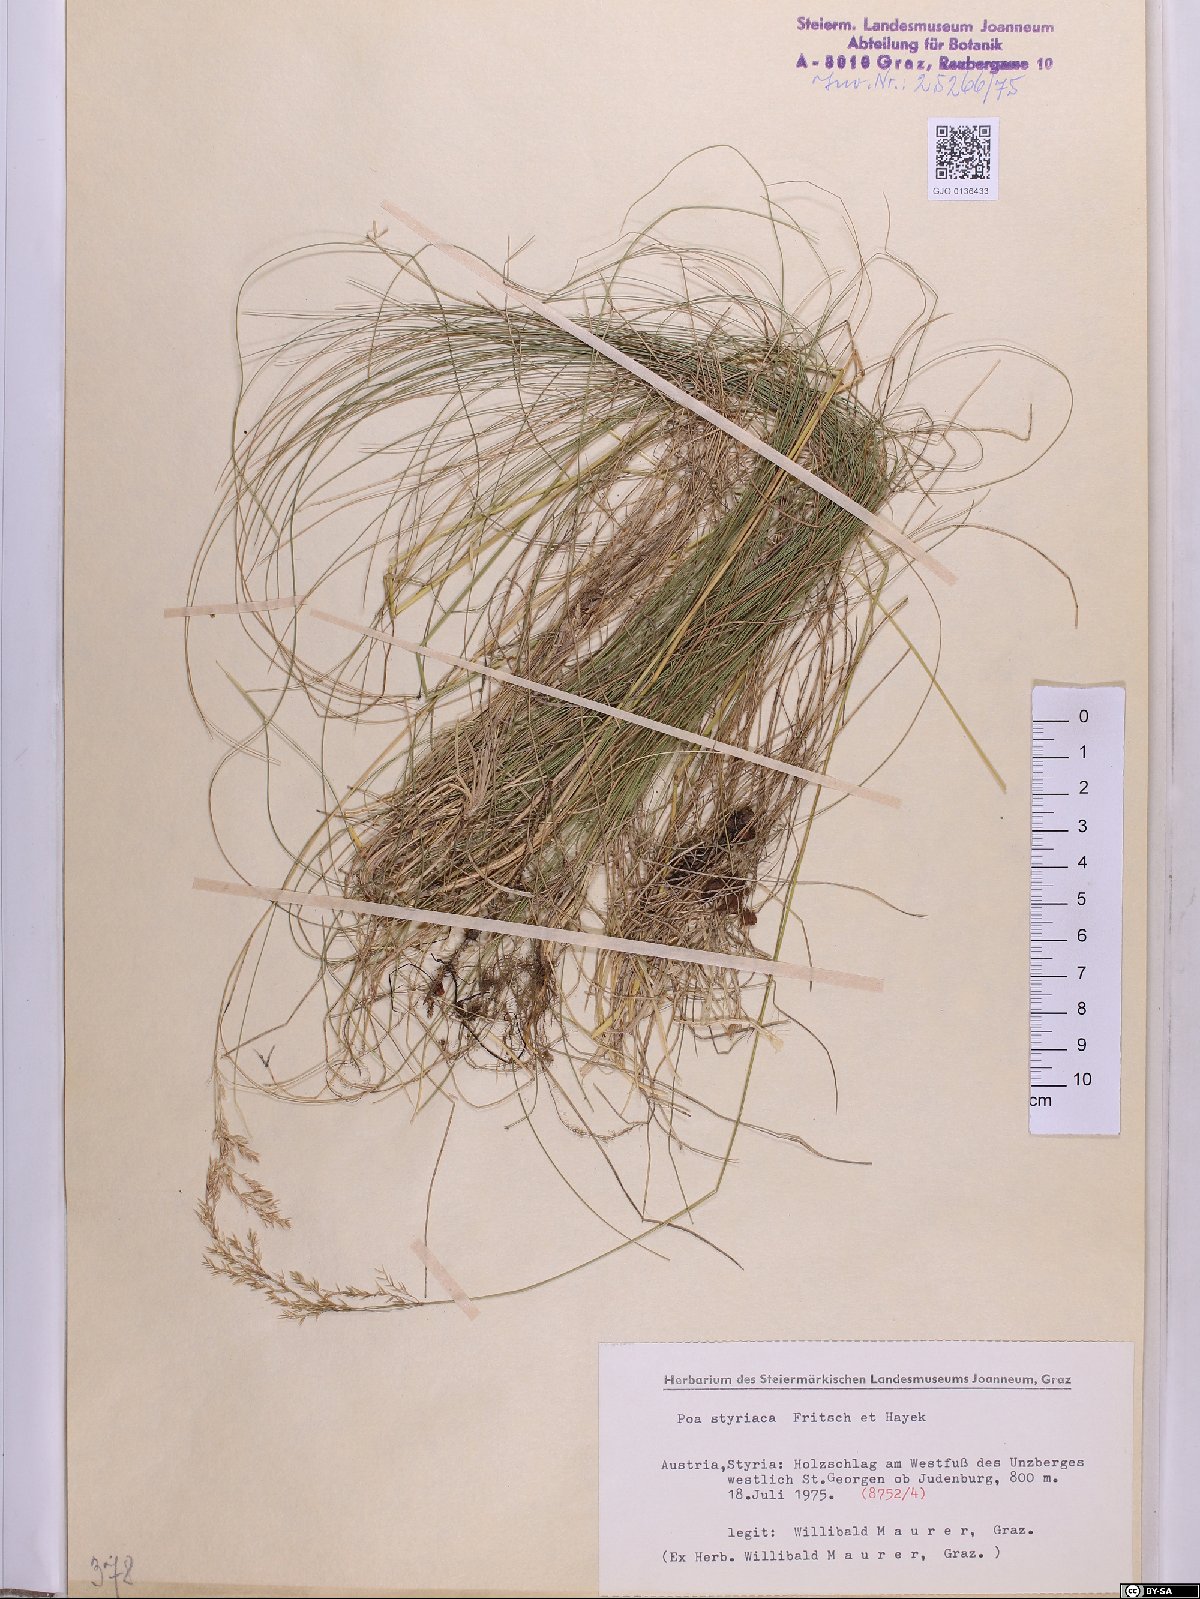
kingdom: Plantae
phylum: Tracheophyta
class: Liliopsida
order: Poales
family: Poaceae
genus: Poa
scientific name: Poa stiriaca
